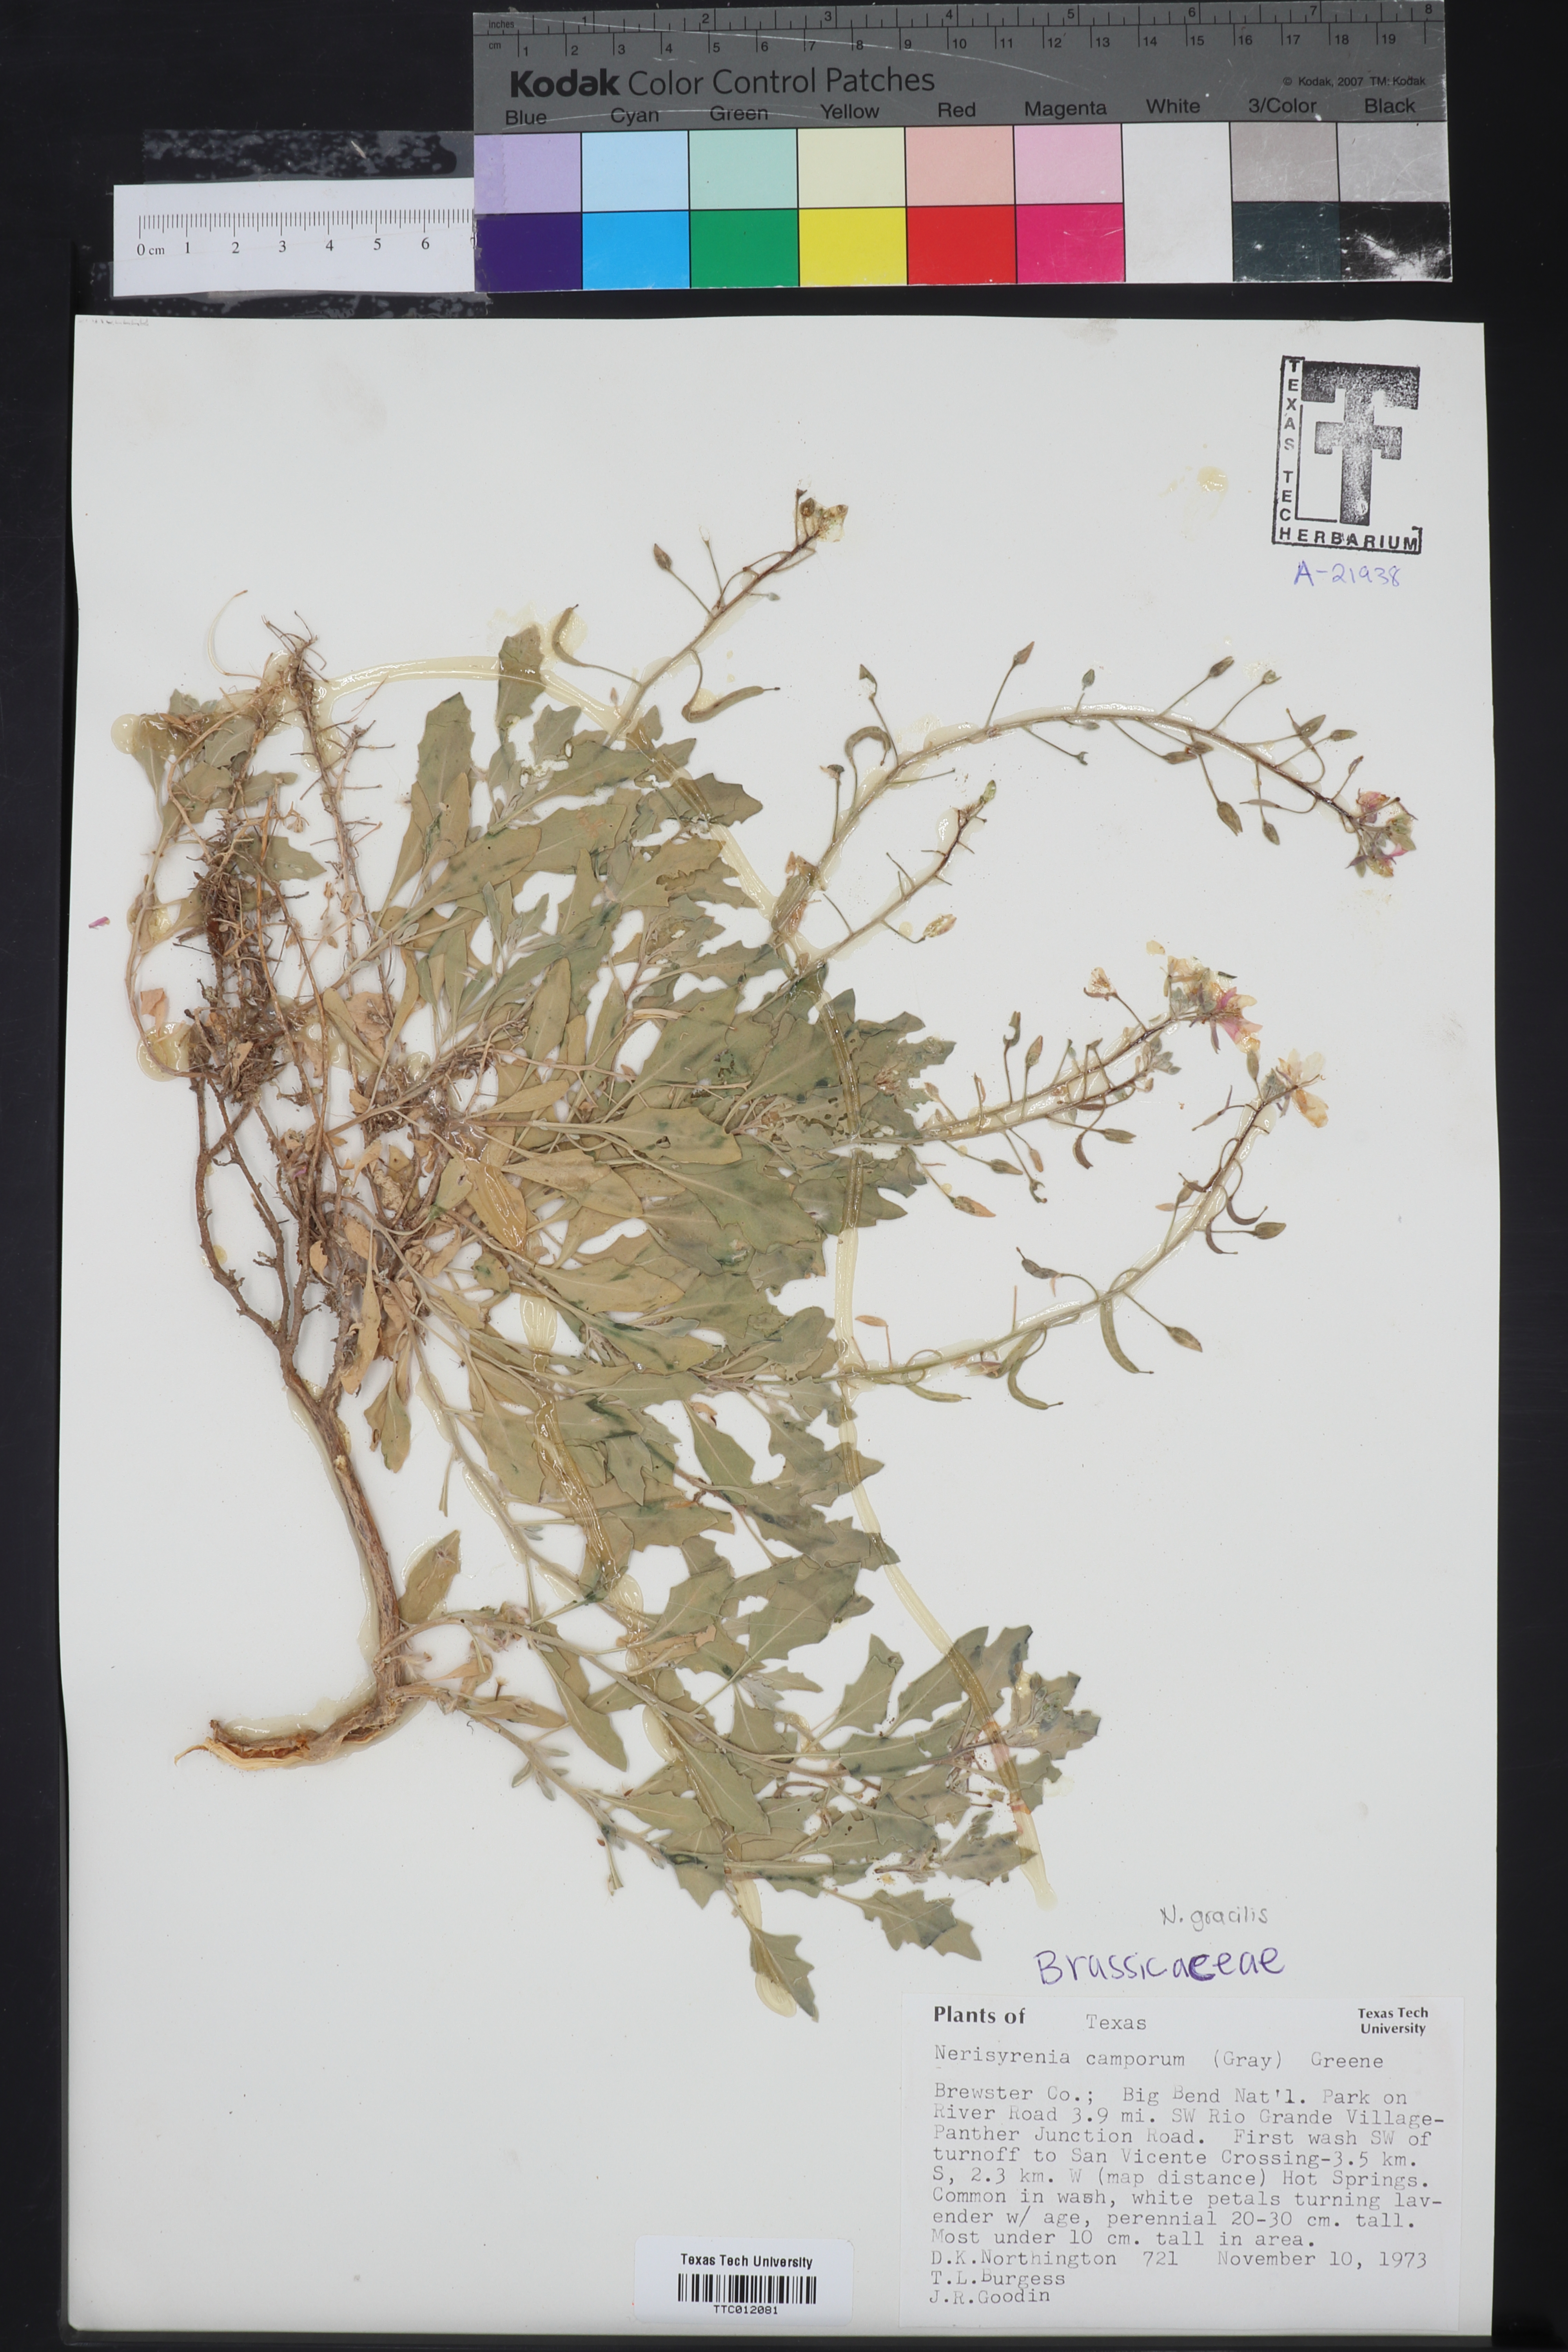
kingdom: Plantae
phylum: Tracheophyta
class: Magnoliopsida
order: Brassicales
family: Brassicaceae
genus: Nerisyrenia
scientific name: Nerisyrenia camporum
